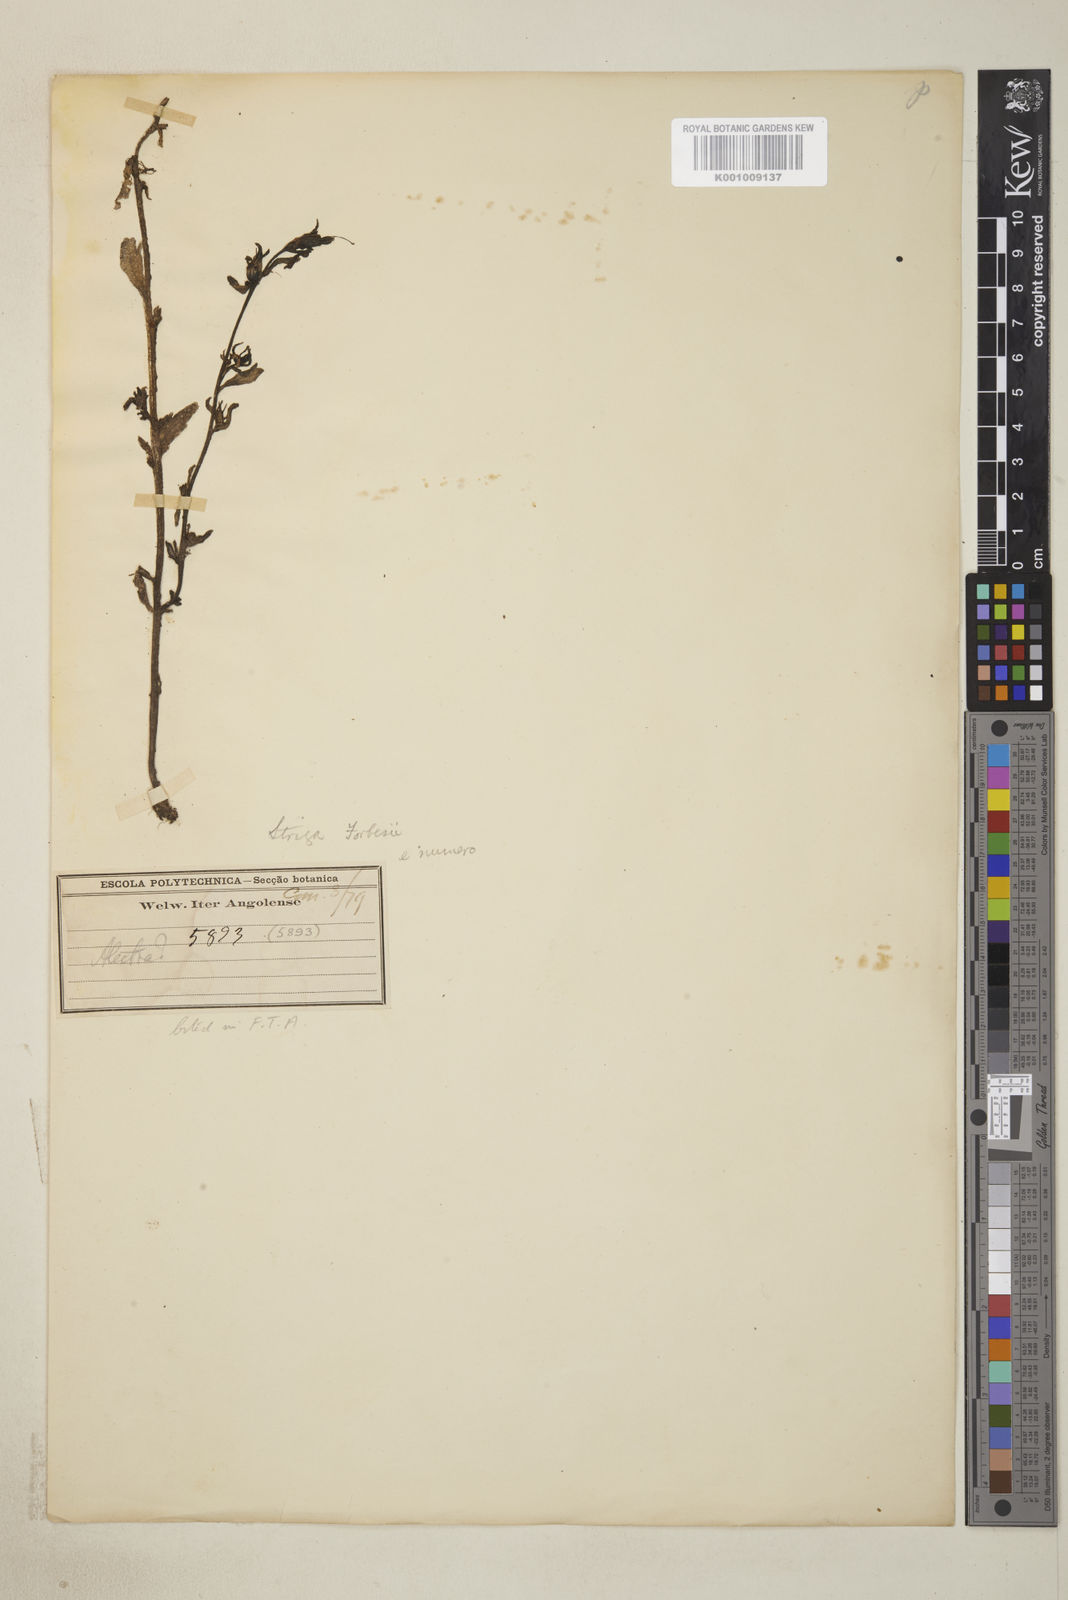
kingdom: Plantae
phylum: Tracheophyta
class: Magnoliopsida
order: Lamiales
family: Orobanchaceae
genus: Striga
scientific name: Striga forbesii
